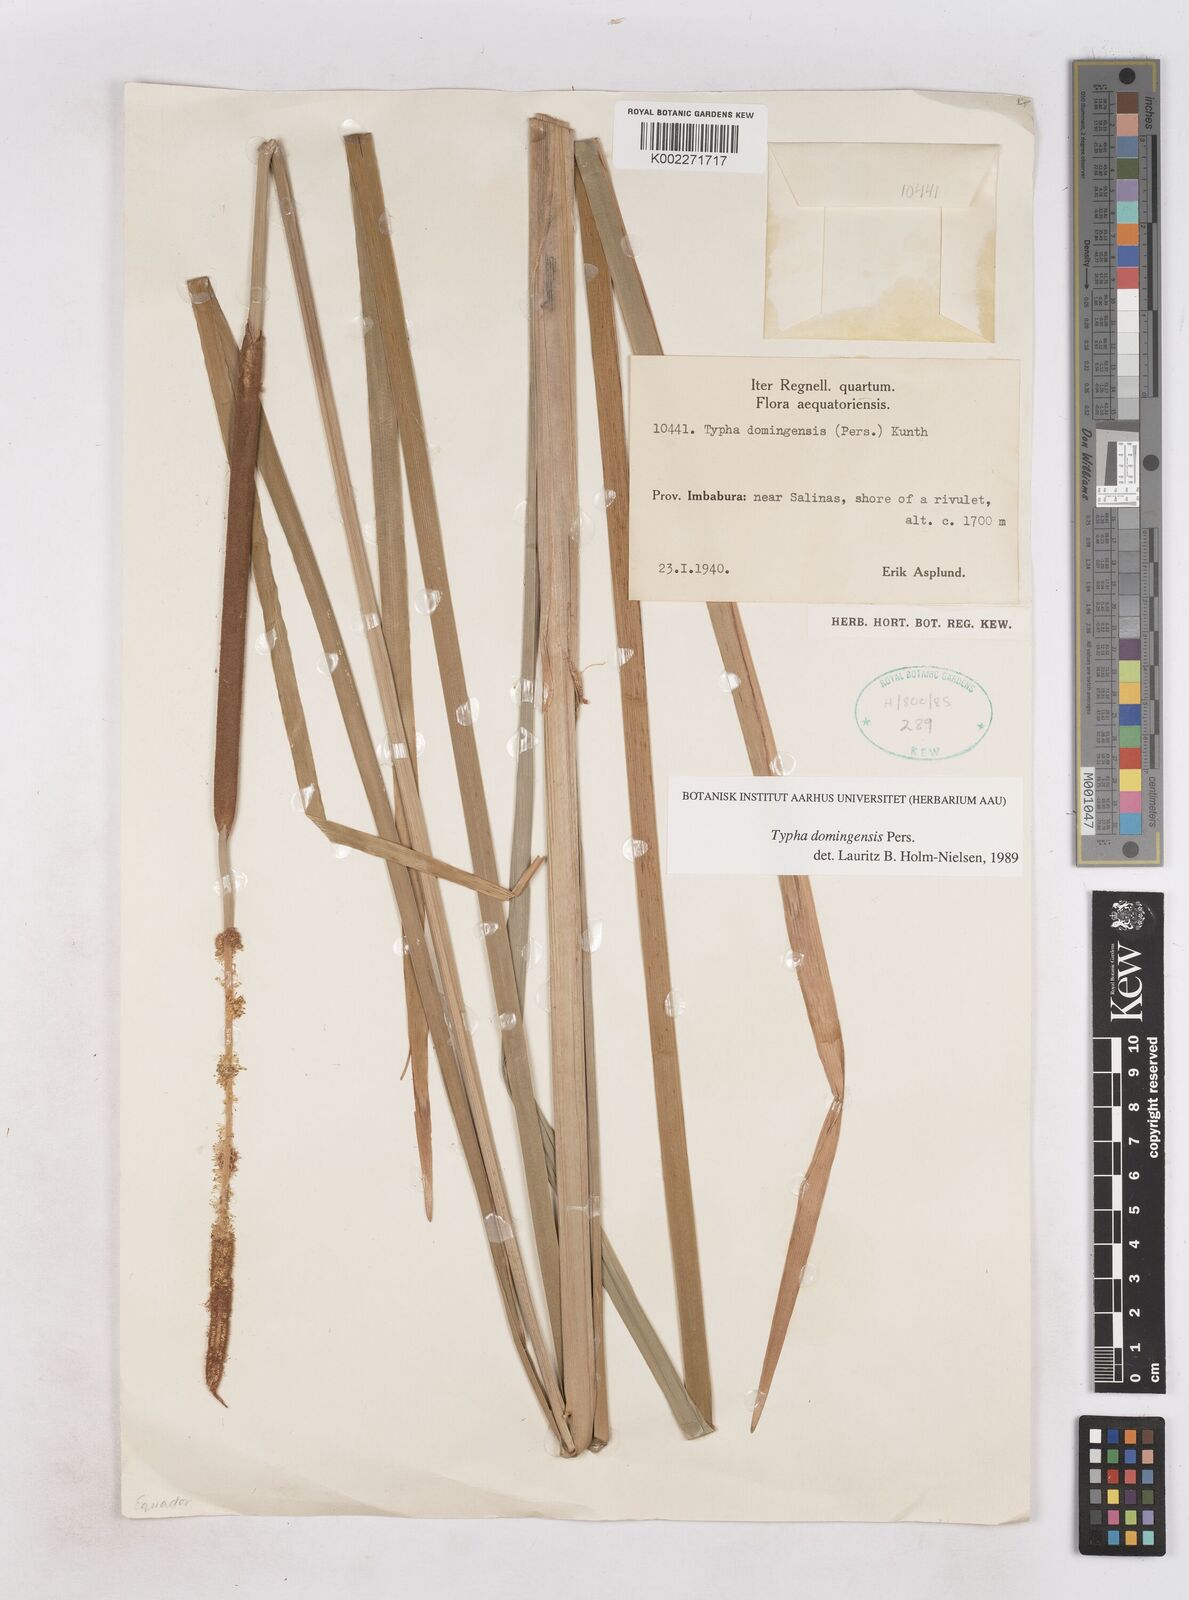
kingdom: Plantae
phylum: Tracheophyta
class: Liliopsida
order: Poales
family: Typhaceae
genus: Typha
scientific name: Typha domingensis
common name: Southern cattail
